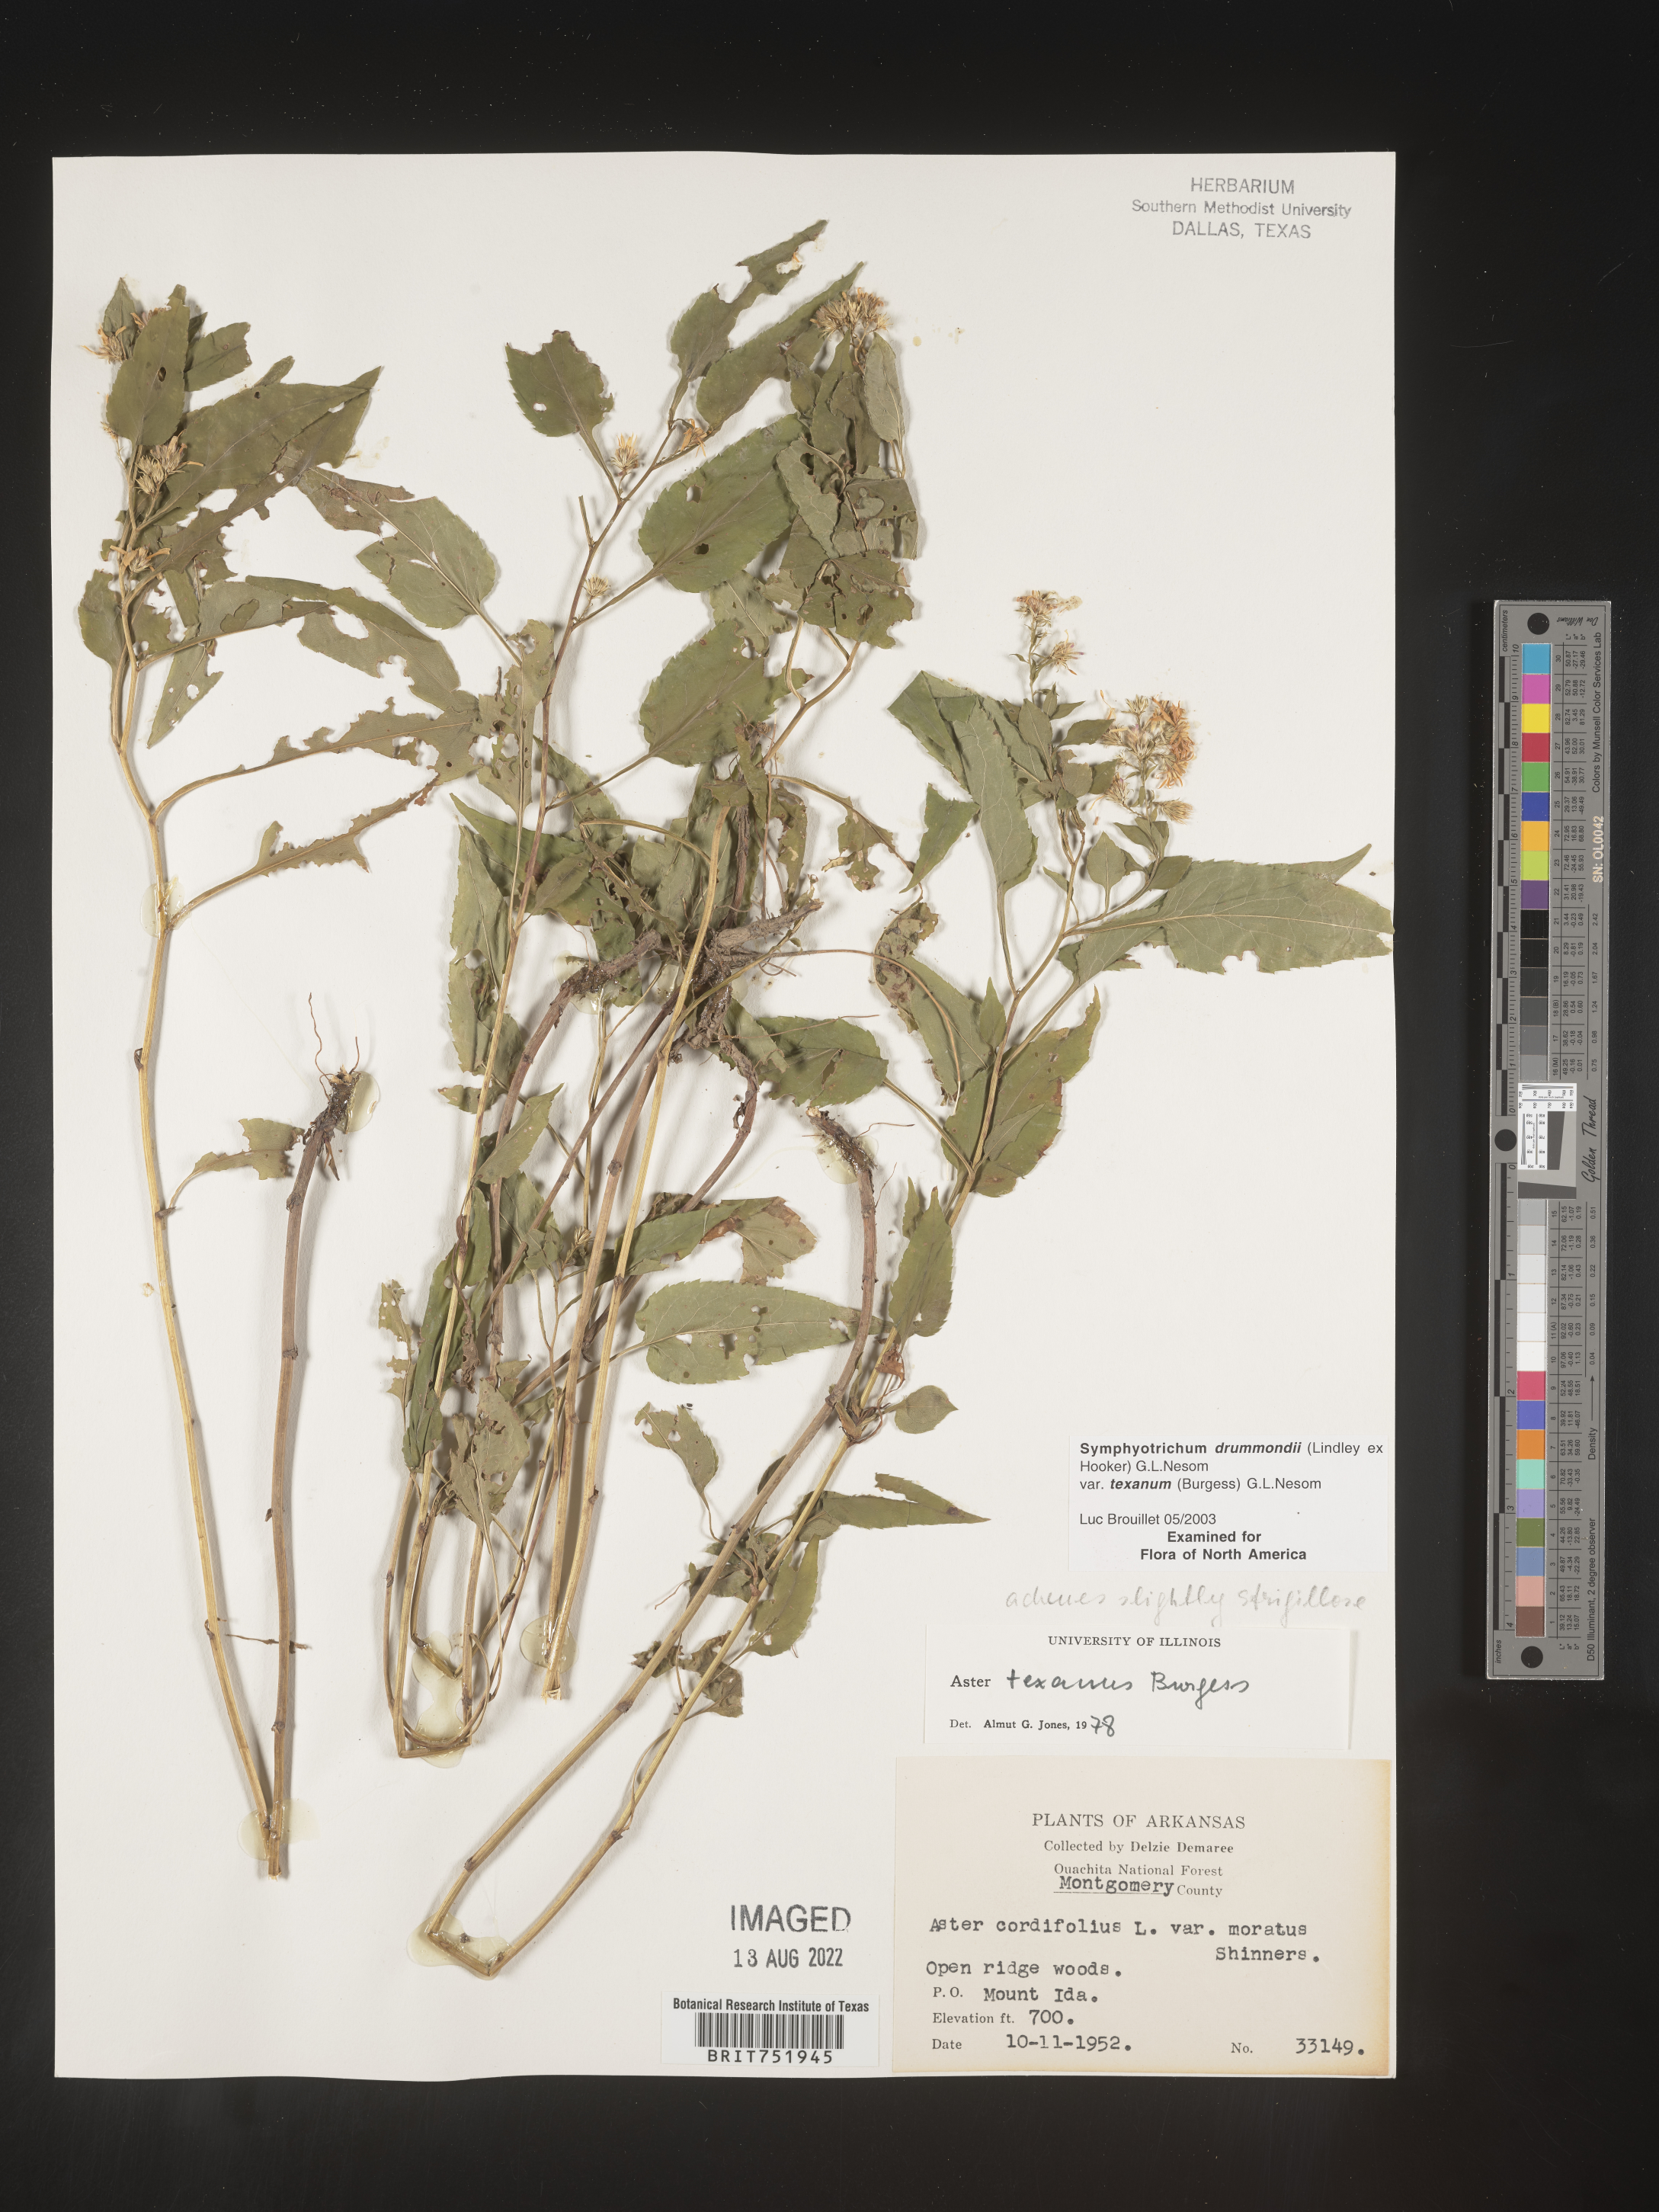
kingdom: Plantae
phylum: Tracheophyta
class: Magnoliopsida
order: Asterales
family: Asteraceae
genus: Symphyotrichum
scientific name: Symphyotrichum drummondii
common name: Drummond's aster
